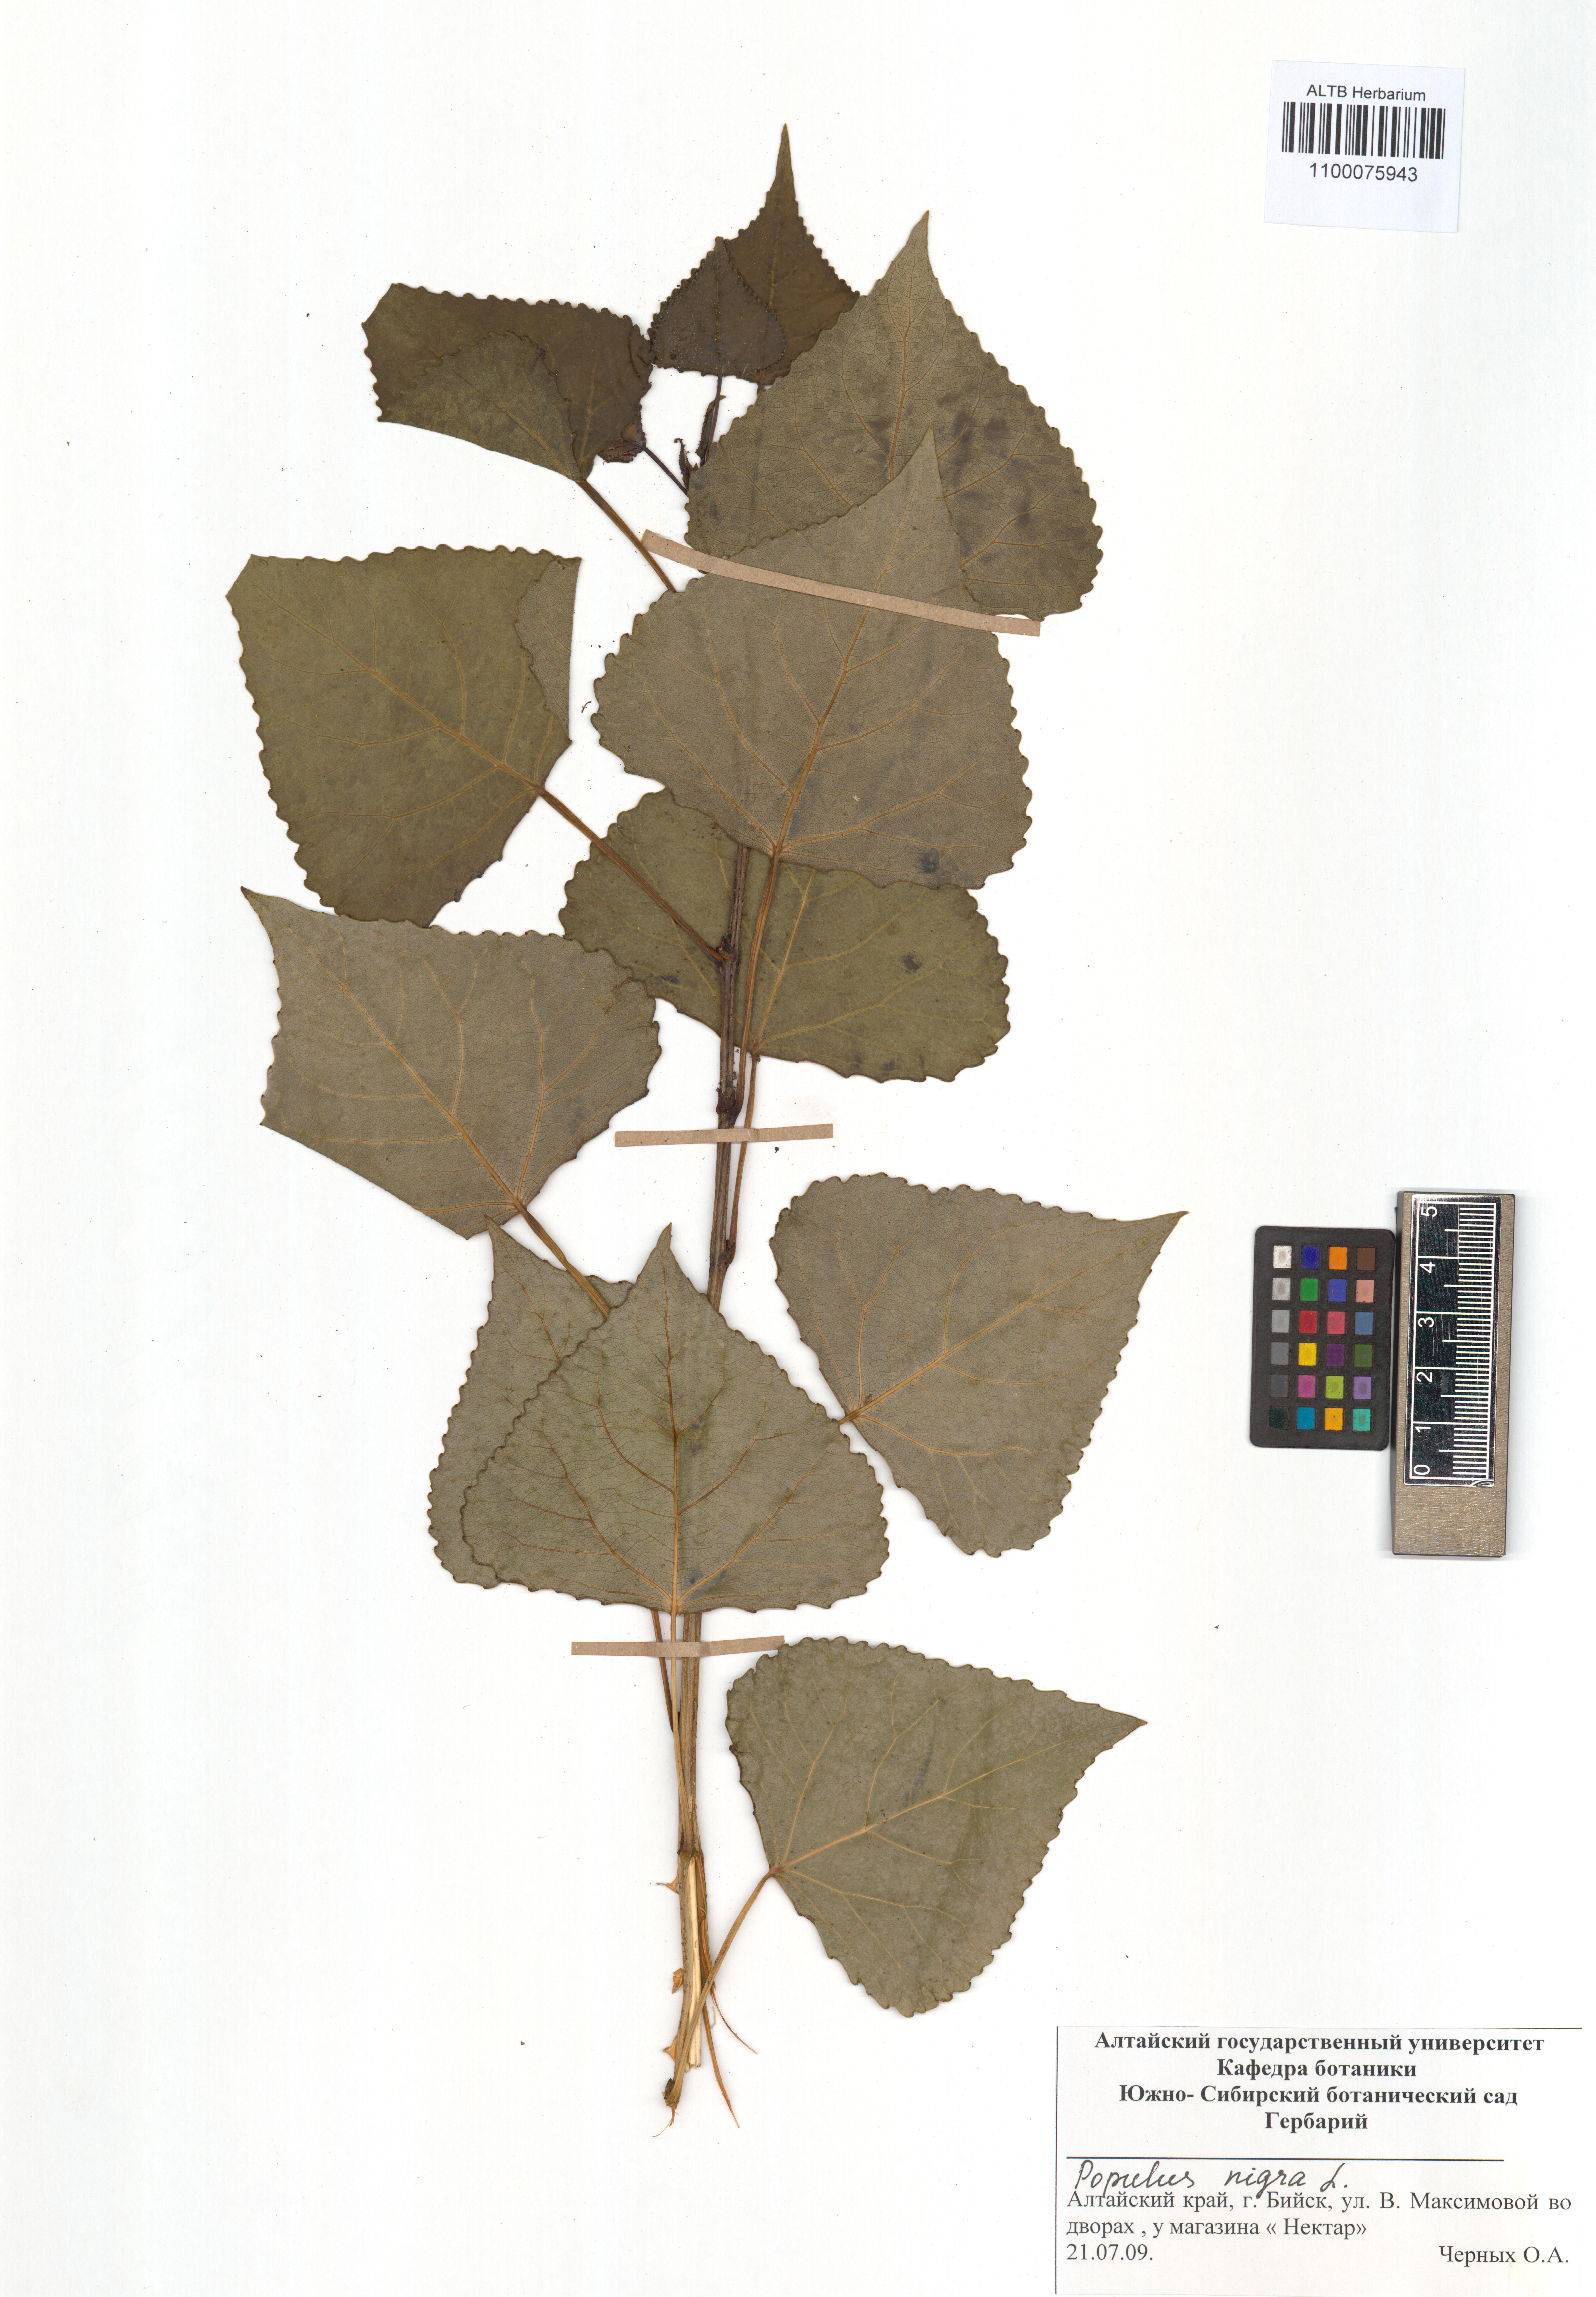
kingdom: Plantae
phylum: Tracheophyta
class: Magnoliopsida
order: Malpighiales
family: Salicaceae
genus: Populus
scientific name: Populus nigra
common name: Black poplar
